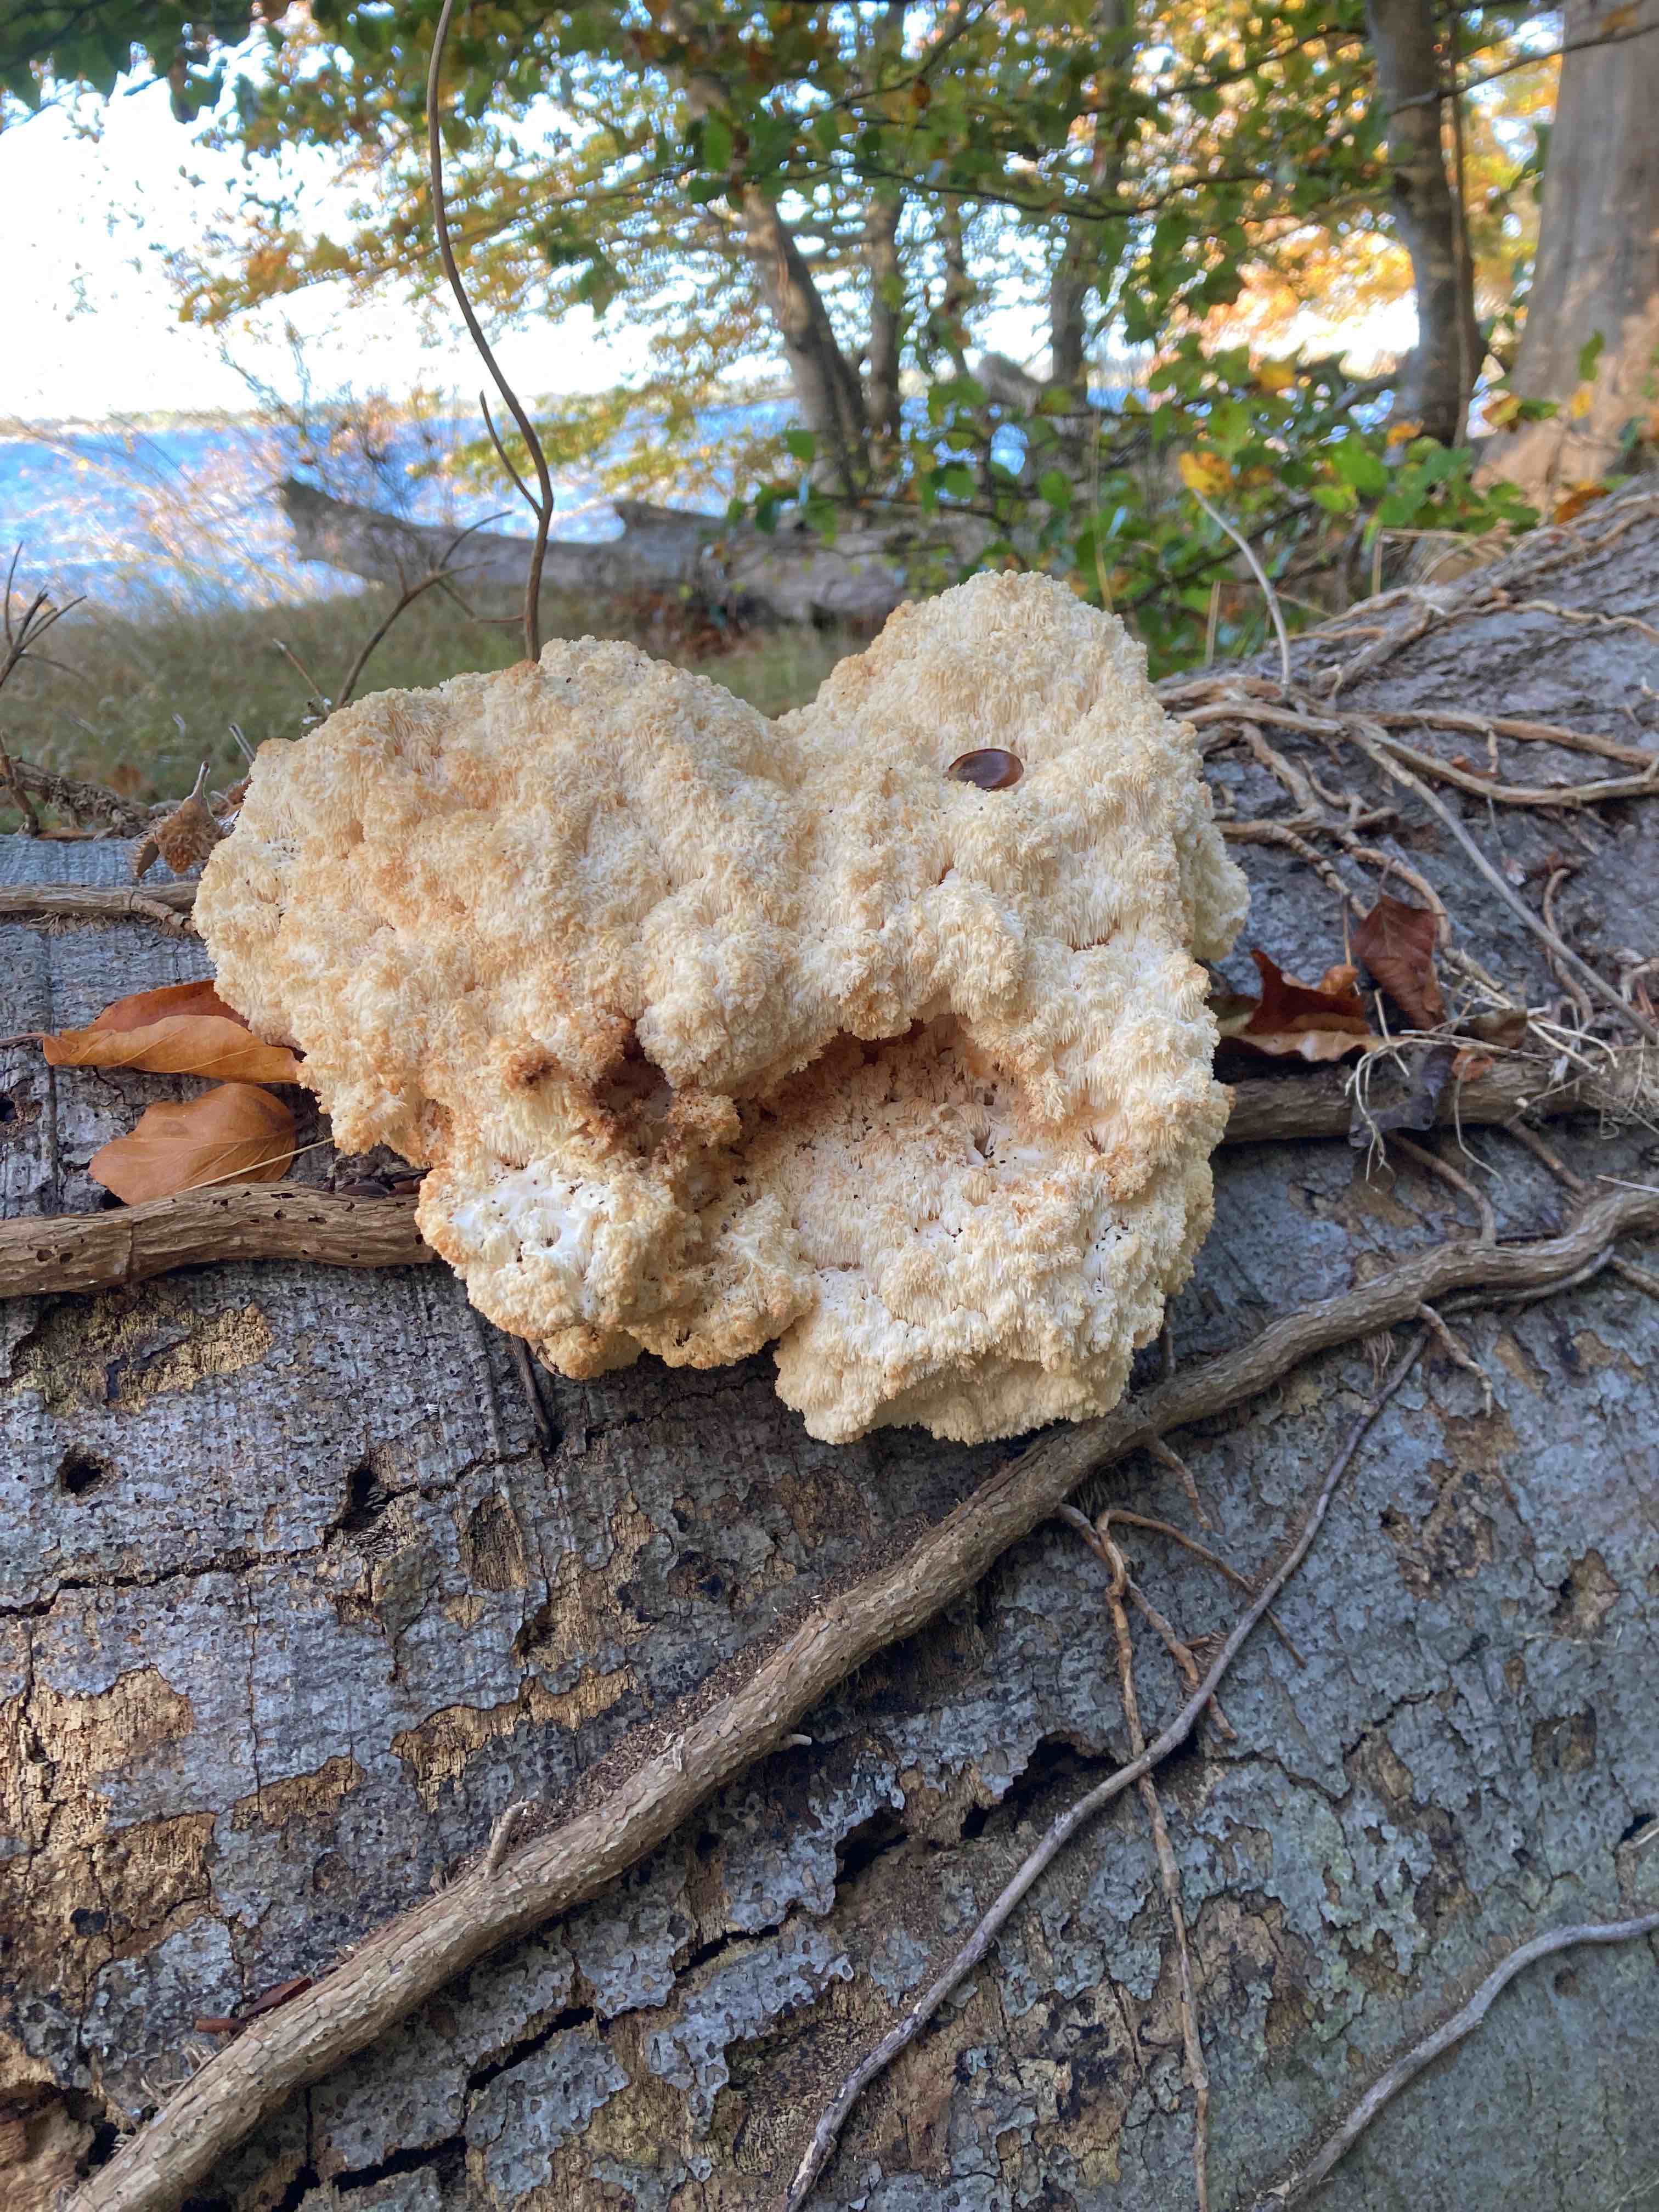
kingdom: Fungi
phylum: Basidiomycota
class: Agaricomycetes
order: Russulales
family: Hericiaceae
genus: Hericium
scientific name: Hericium coralloides
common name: koralpigsvamp
